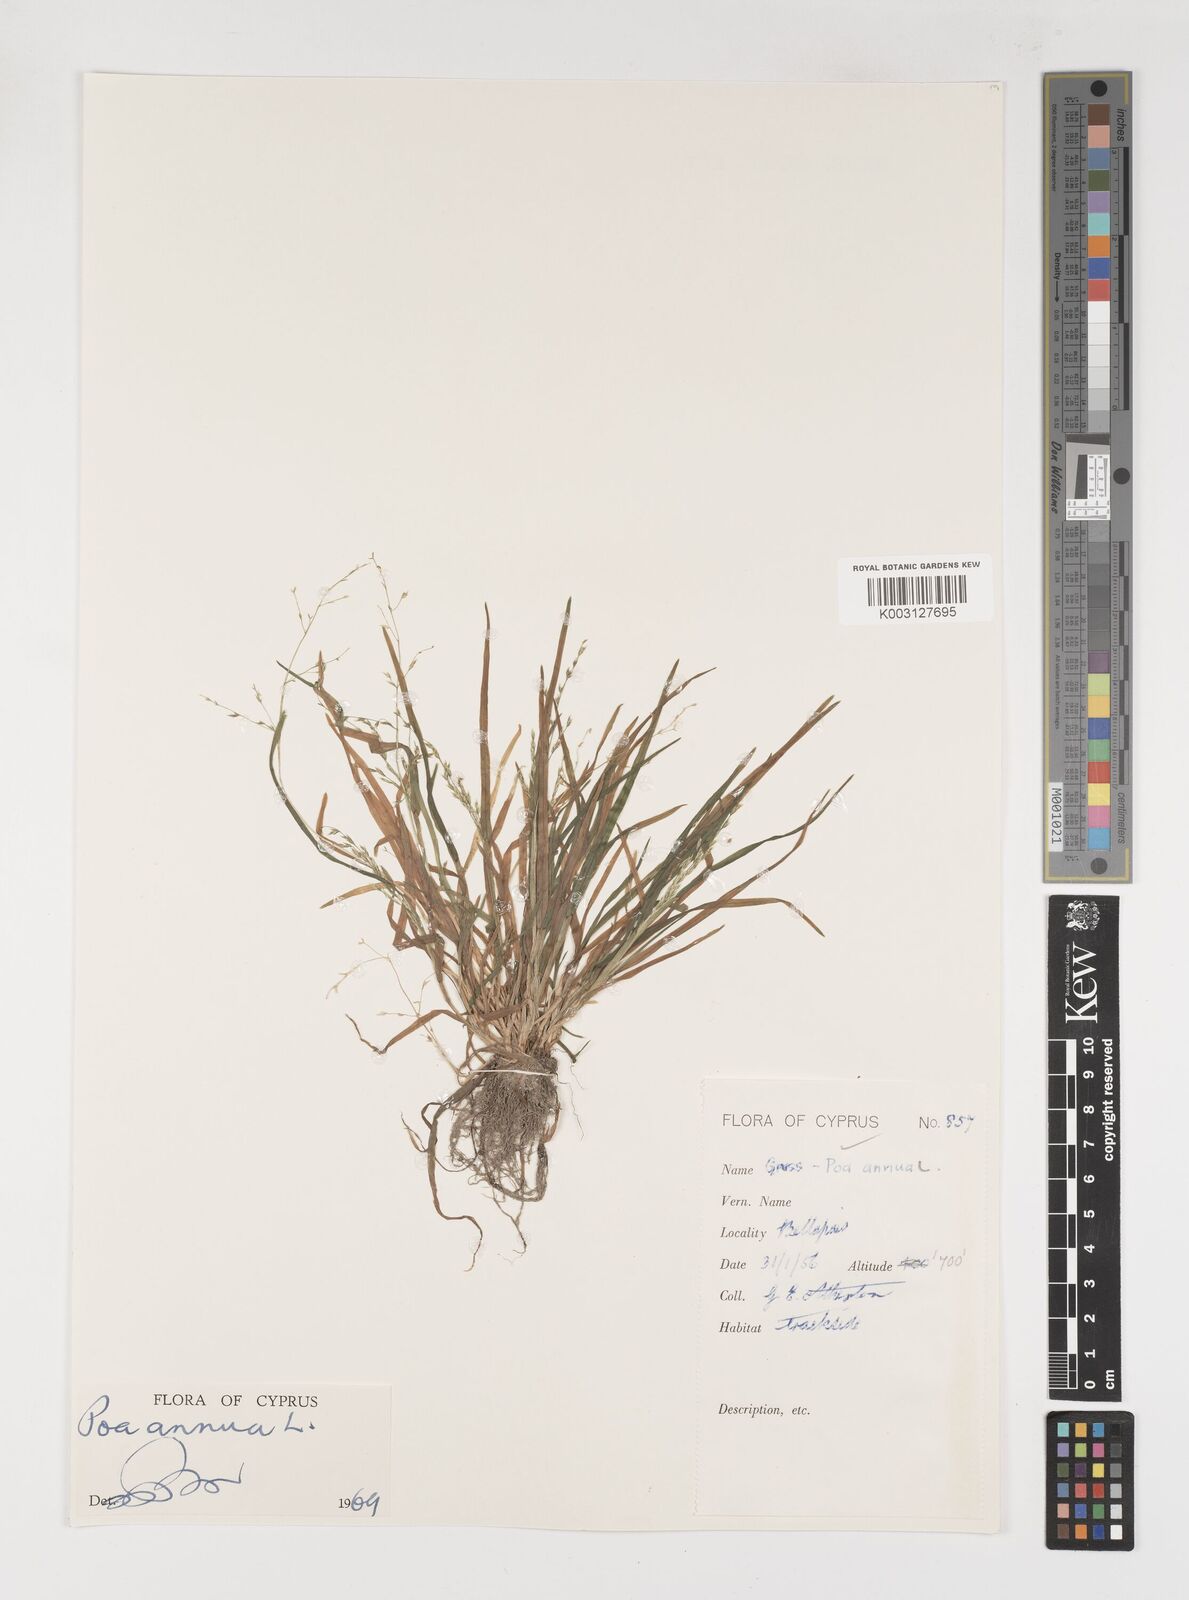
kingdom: Plantae
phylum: Tracheophyta
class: Liliopsida
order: Poales
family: Poaceae
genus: Poa
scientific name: Poa annua
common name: Annual bluegrass
